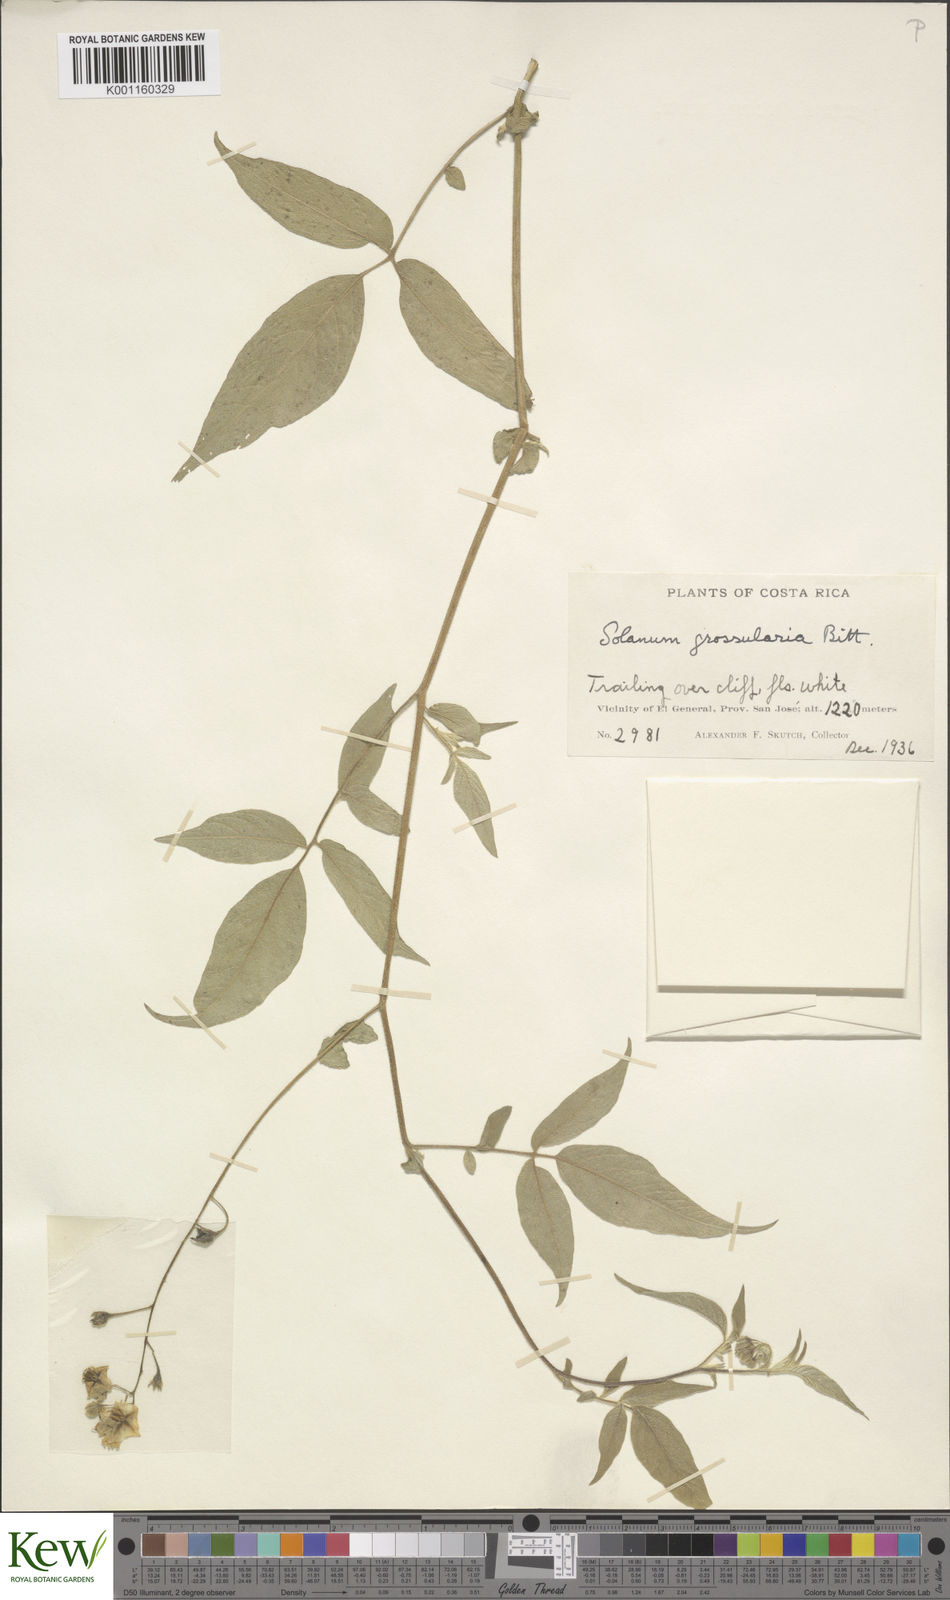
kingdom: Plantae
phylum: Tracheophyta
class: Magnoliopsida
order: Solanales
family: Solanaceae
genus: Solanum
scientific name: Solanum caripense
